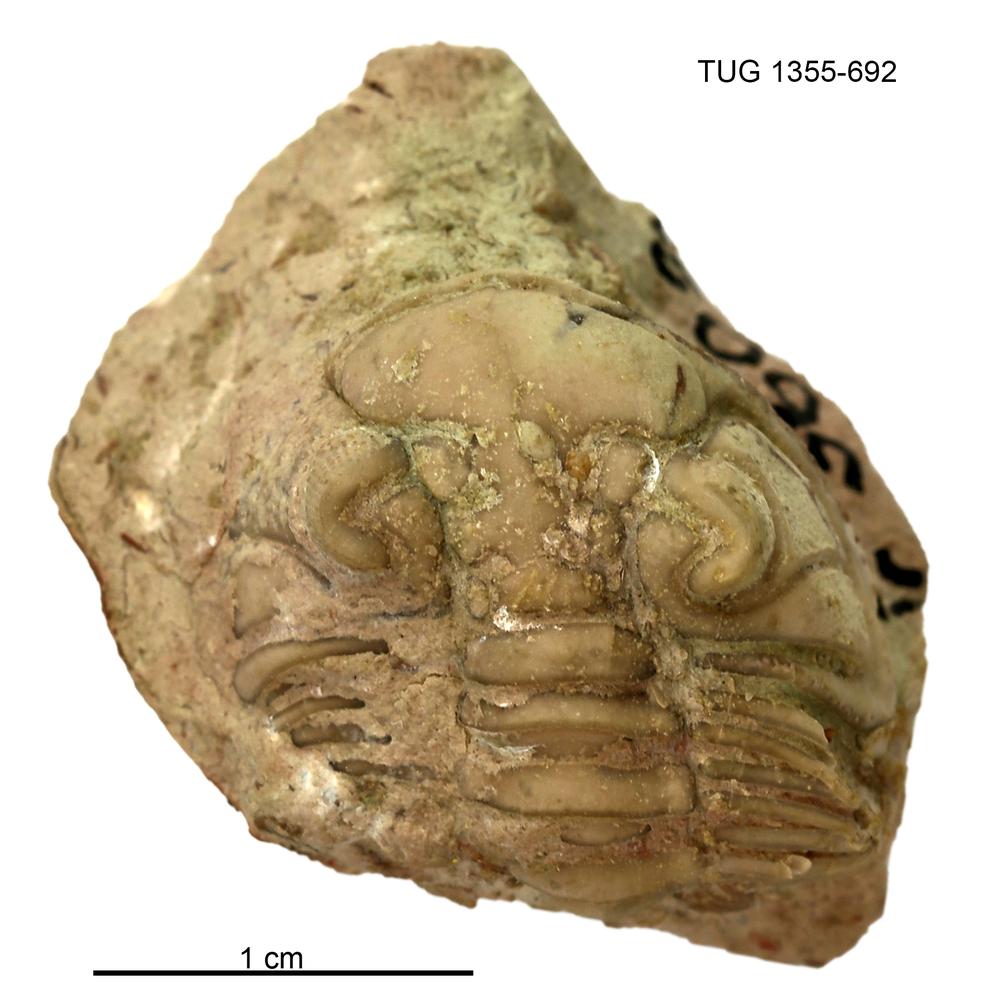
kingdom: Animalia
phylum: Arthropoda
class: Trilobita
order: Phacopida
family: Pterygometopidae
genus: Pterygometopus
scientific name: Pterygometopus sclerops
